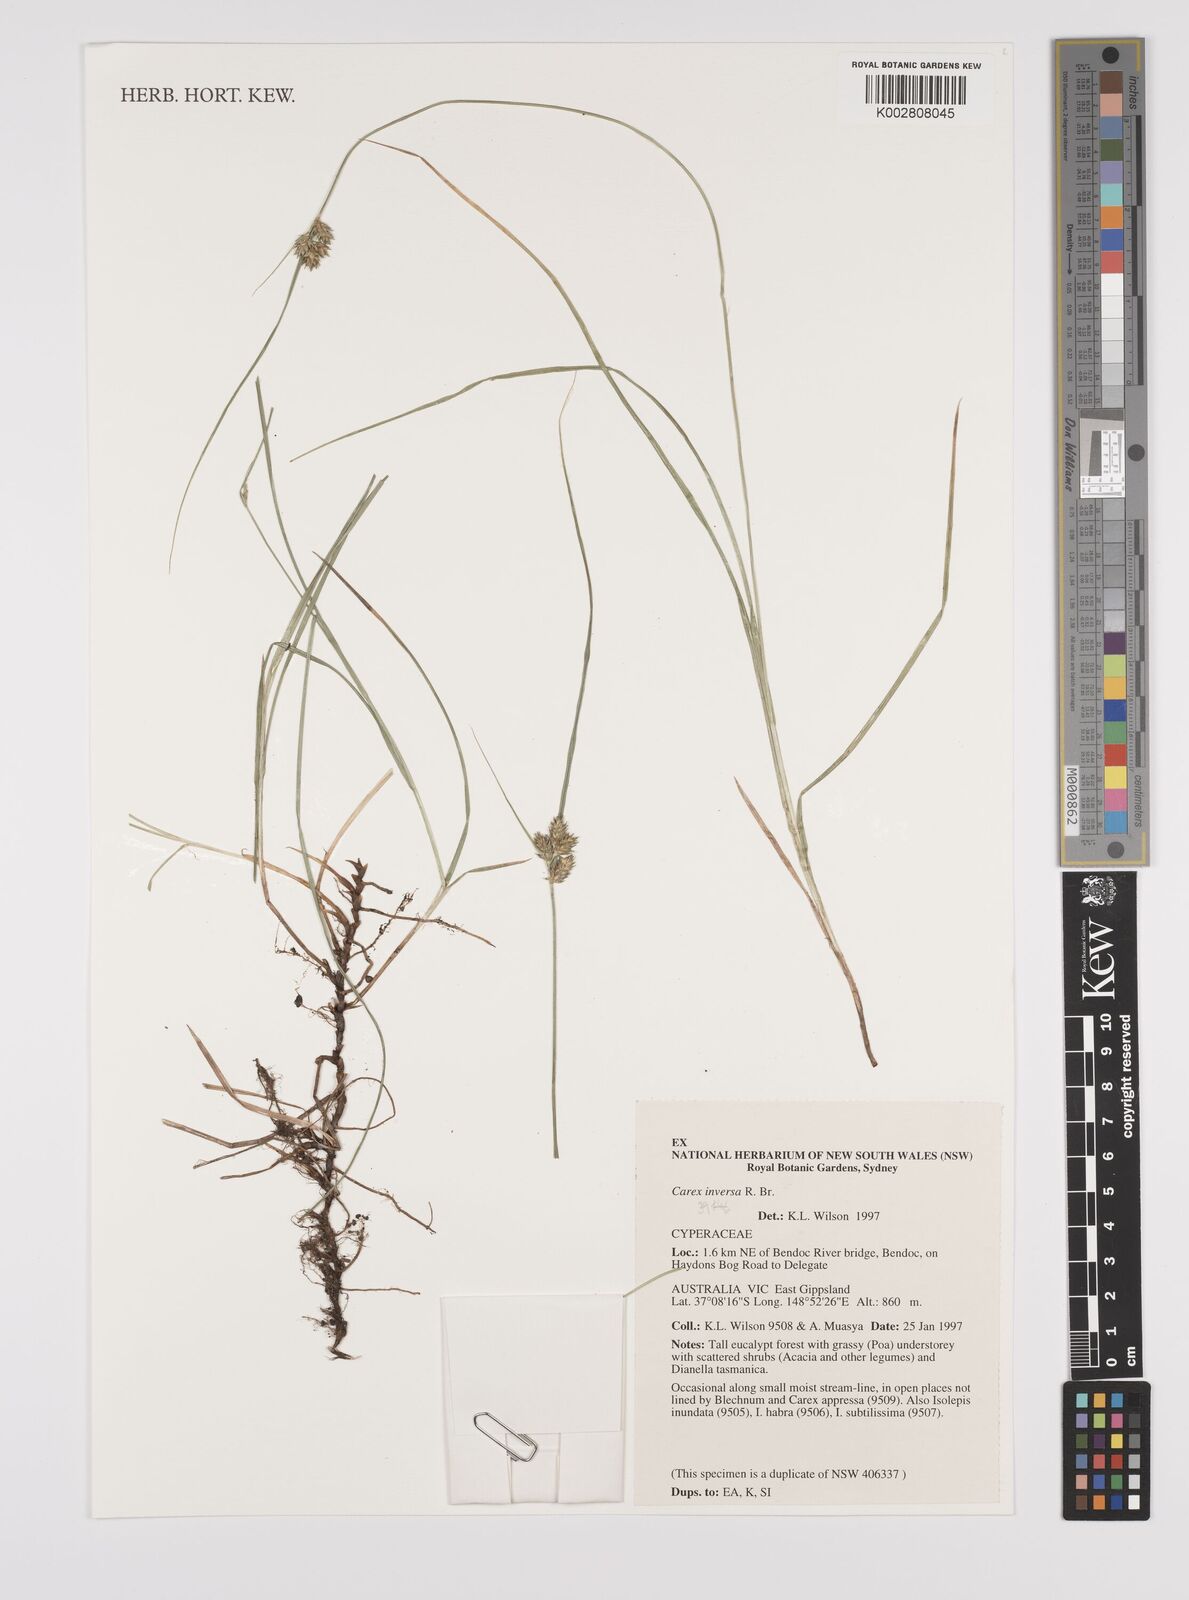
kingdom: Plantae
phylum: Tracheophyta
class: Liliopsida
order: Poales
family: Cyperaceae
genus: Carex
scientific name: Carex inversa
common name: Knob sedge
